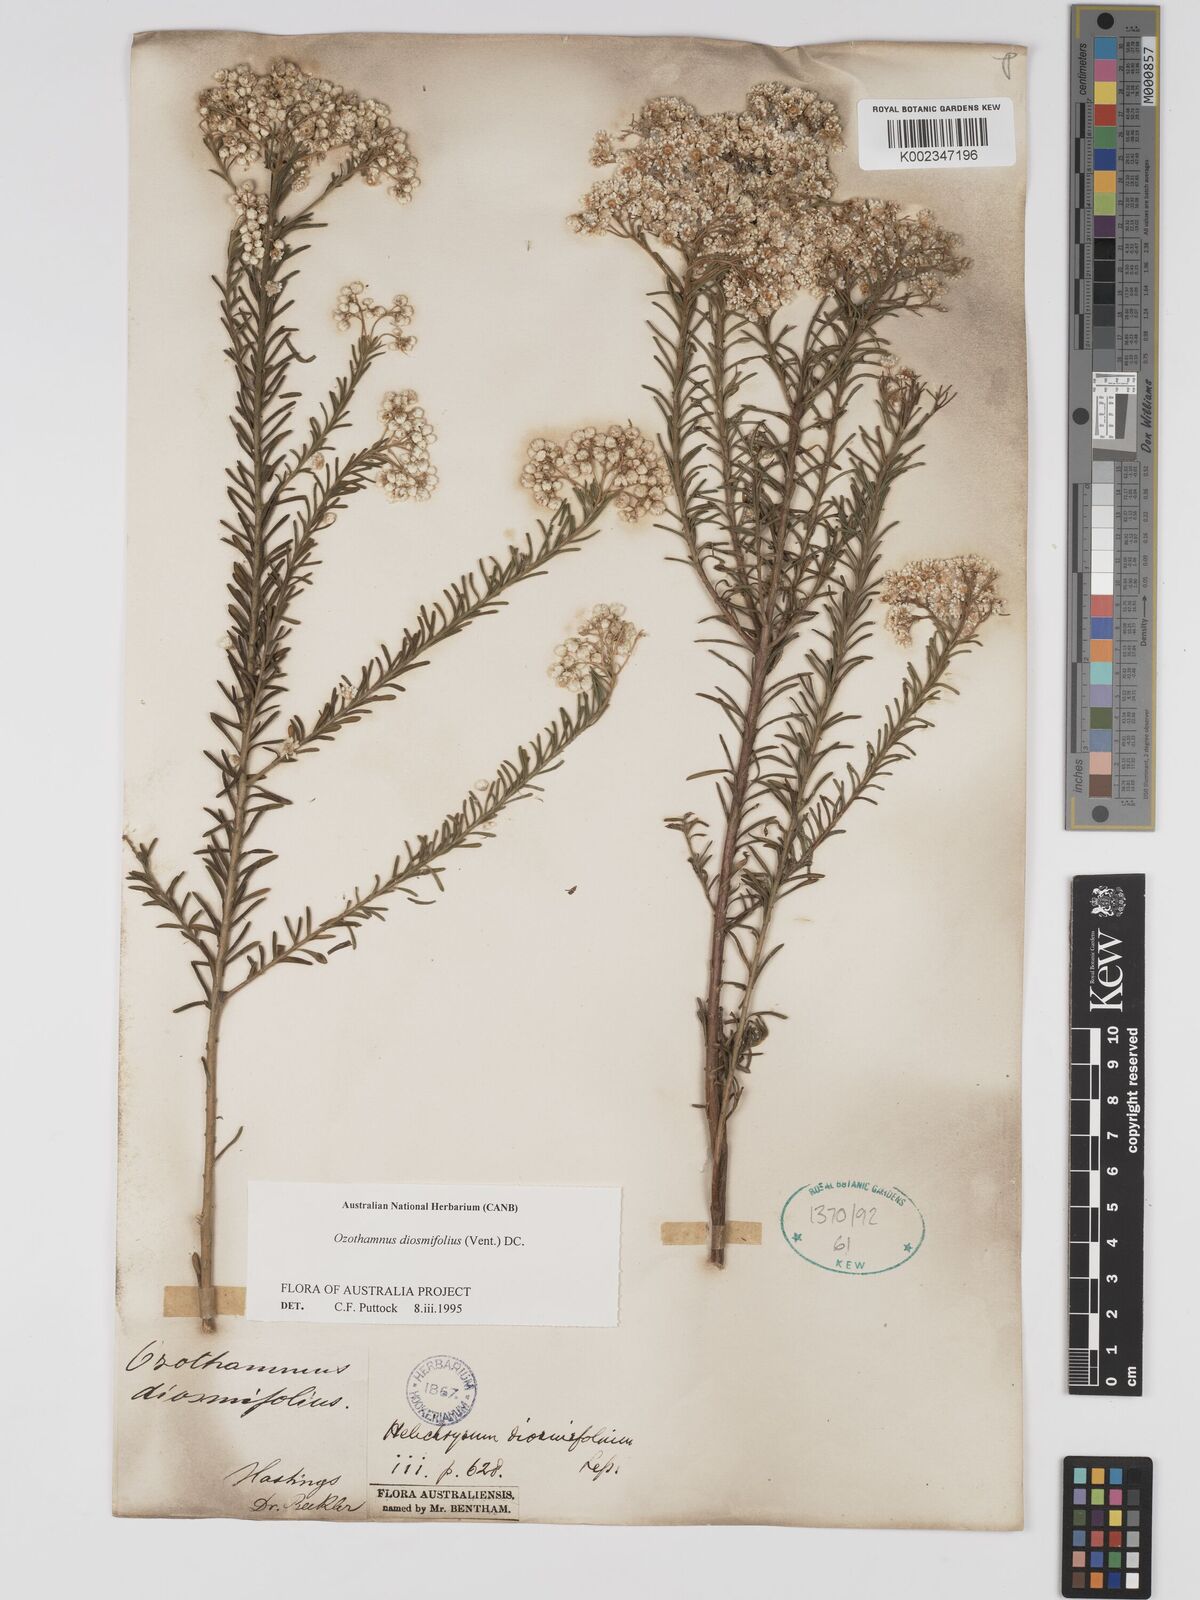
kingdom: Plantae
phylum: Tracheophyta
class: Magnoliopsida
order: Asterales
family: Asteraceae
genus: Ozothamnus
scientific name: Ozothamnus diosmifolius
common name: White-dogwood
